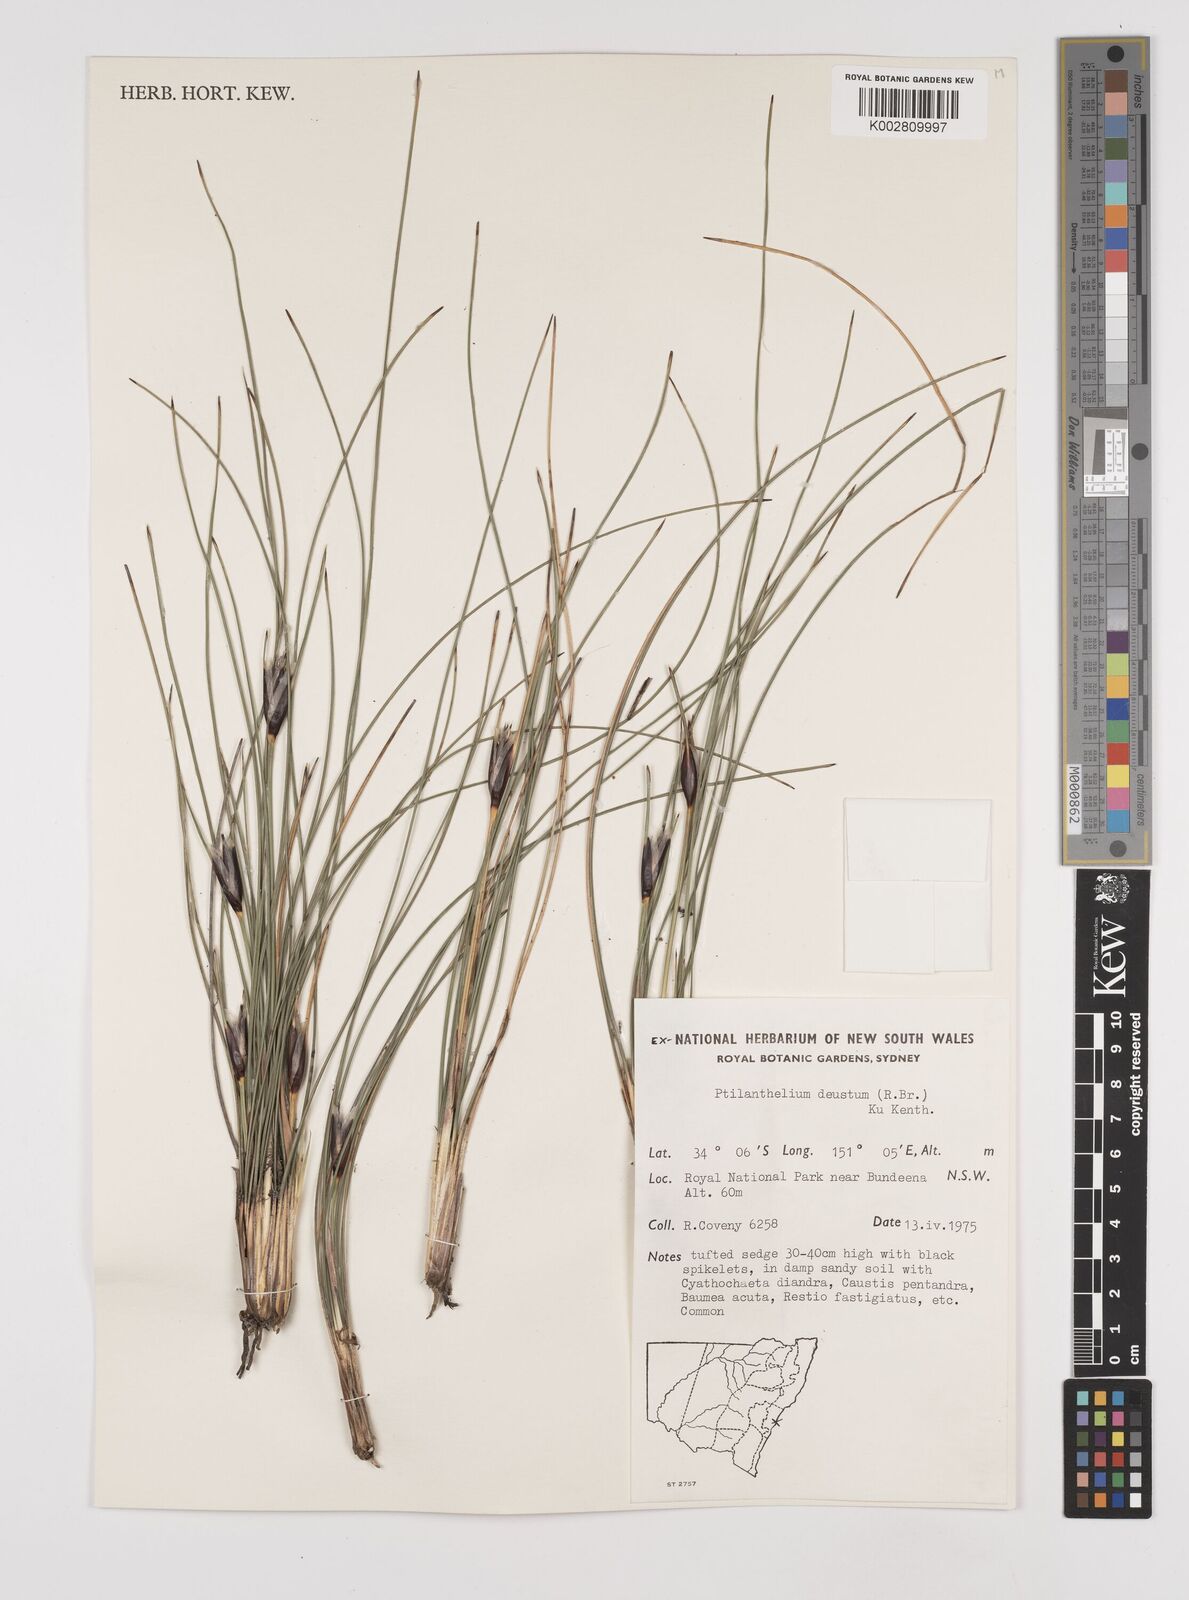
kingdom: Plantae
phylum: Tracheophyta
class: Liliopsida
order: Poales
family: Cyperaceae
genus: Ptilothrix
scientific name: Ptilothrix deusta
